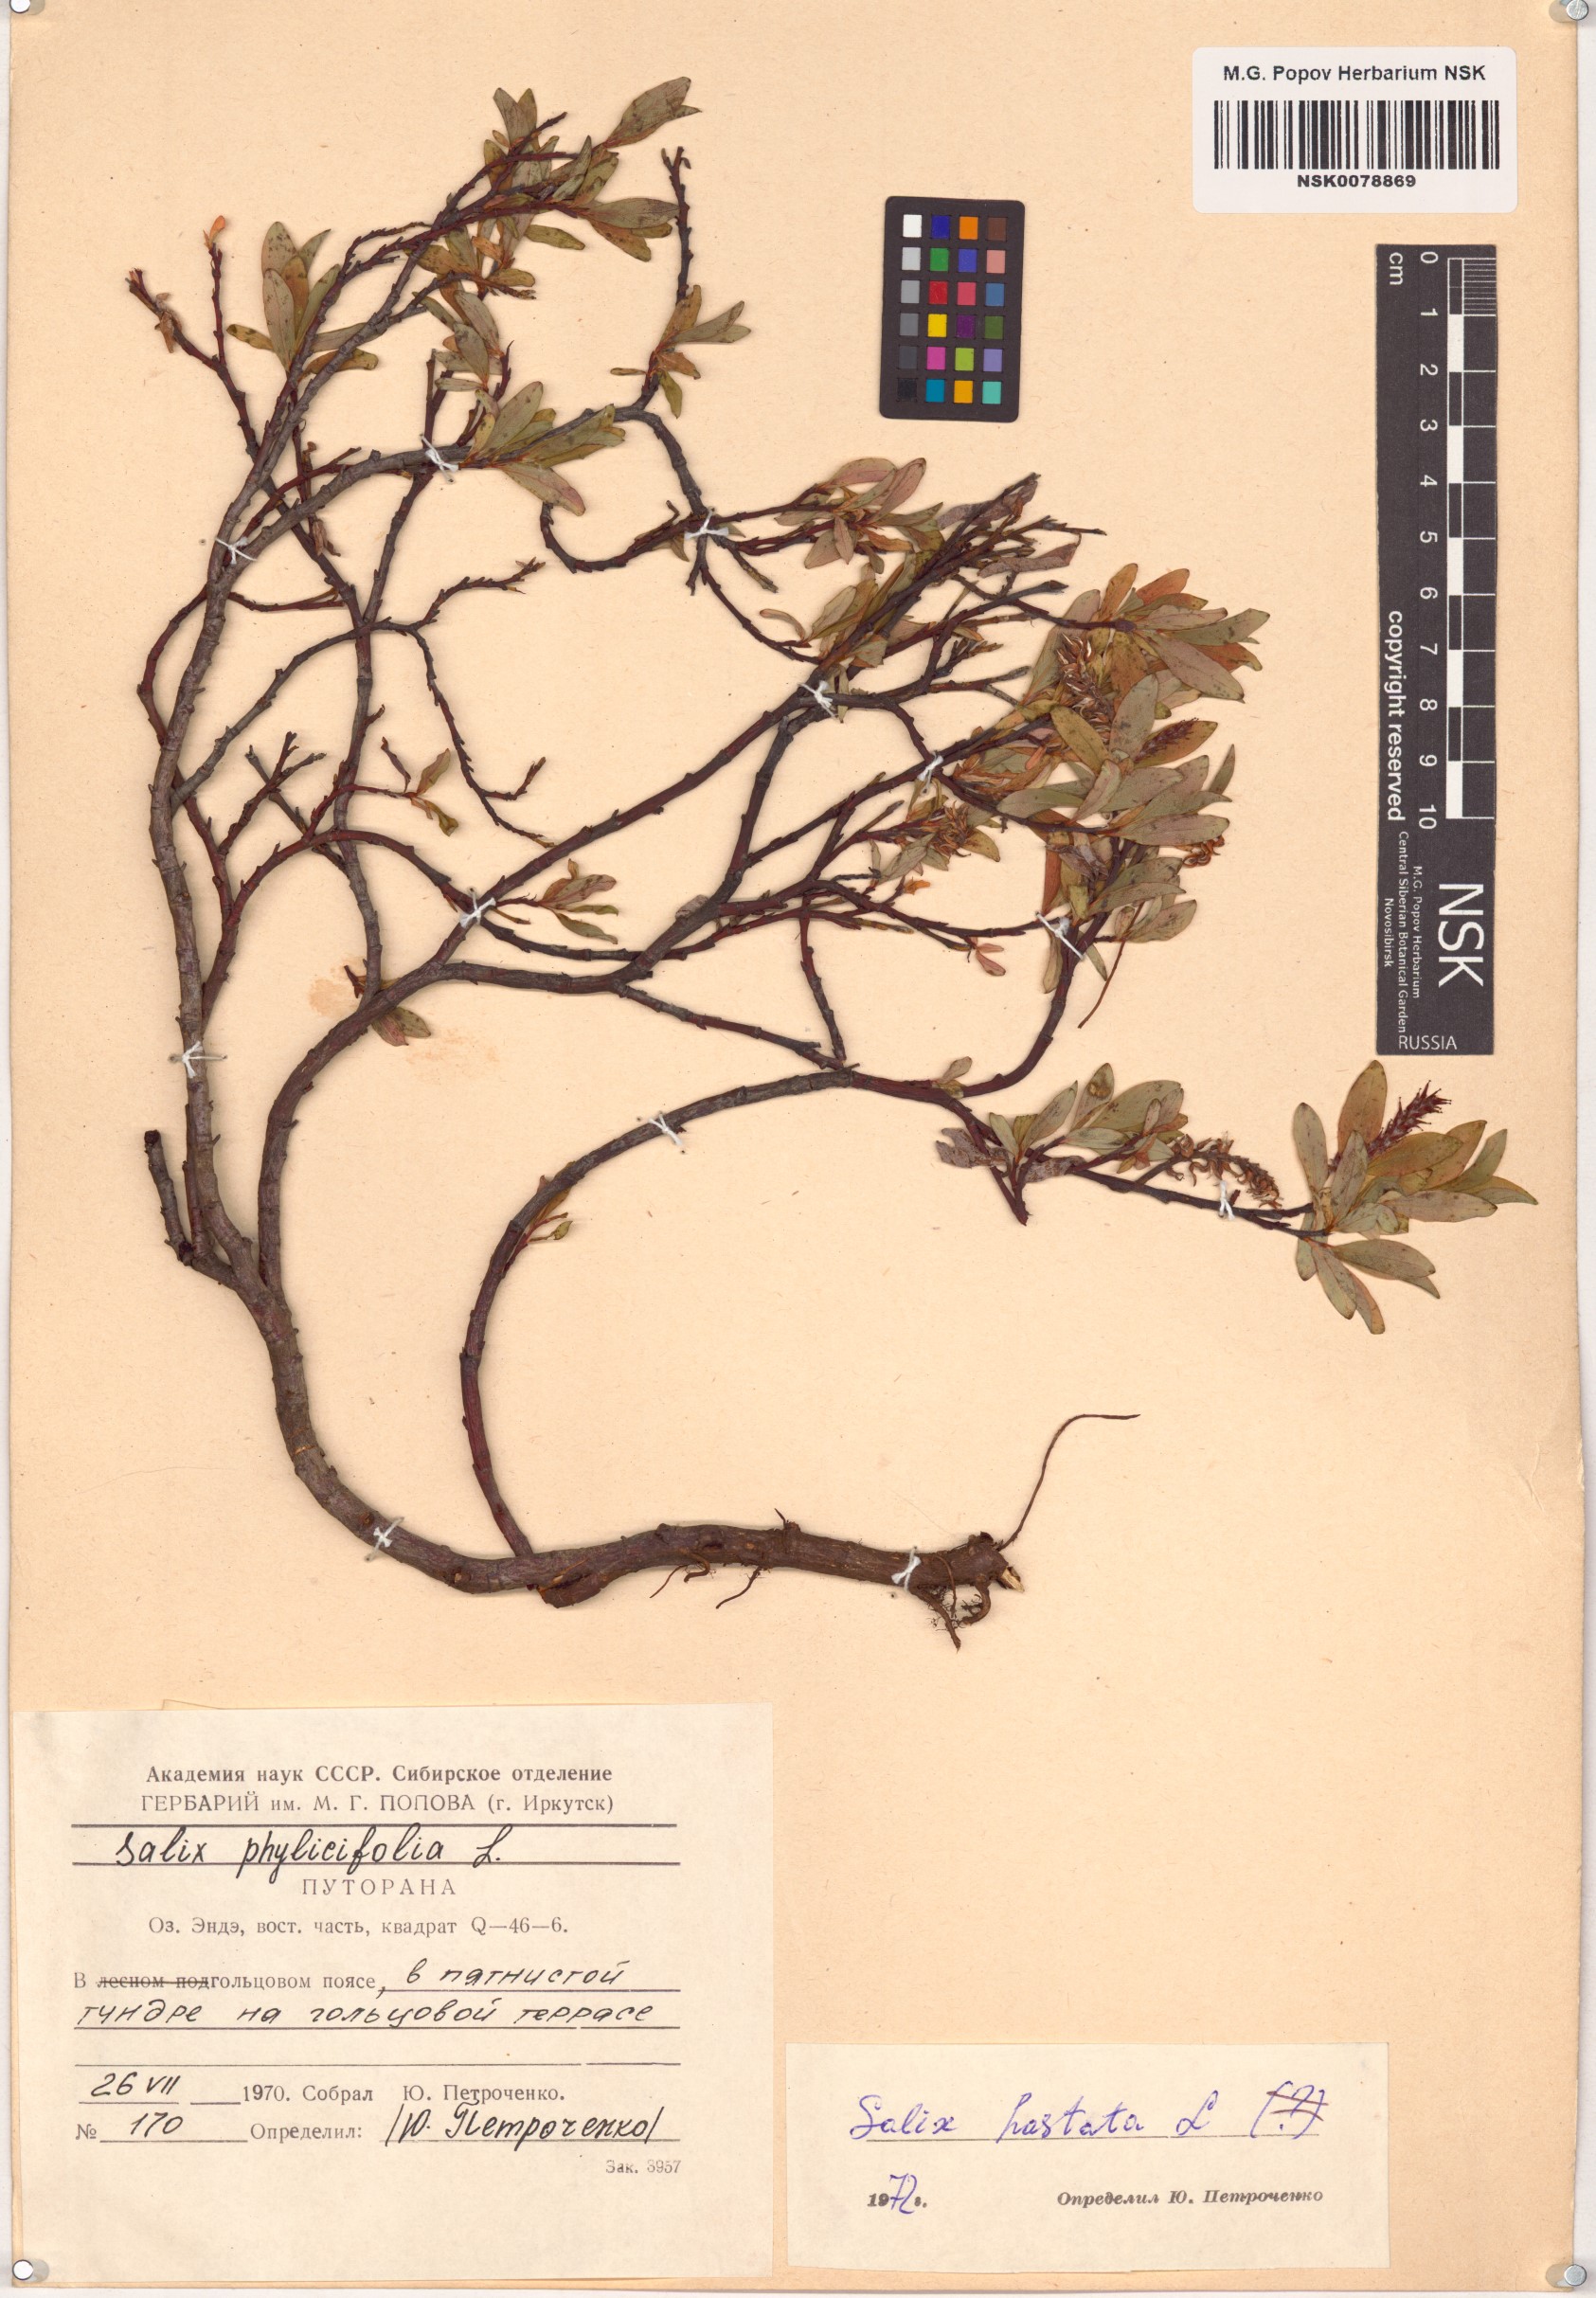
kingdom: Plantae
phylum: Tracheophyta
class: Magnoliopsida
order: Malpighiales
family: Salicaceae
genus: Salix
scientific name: Salix hastata
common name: Halberd willow
